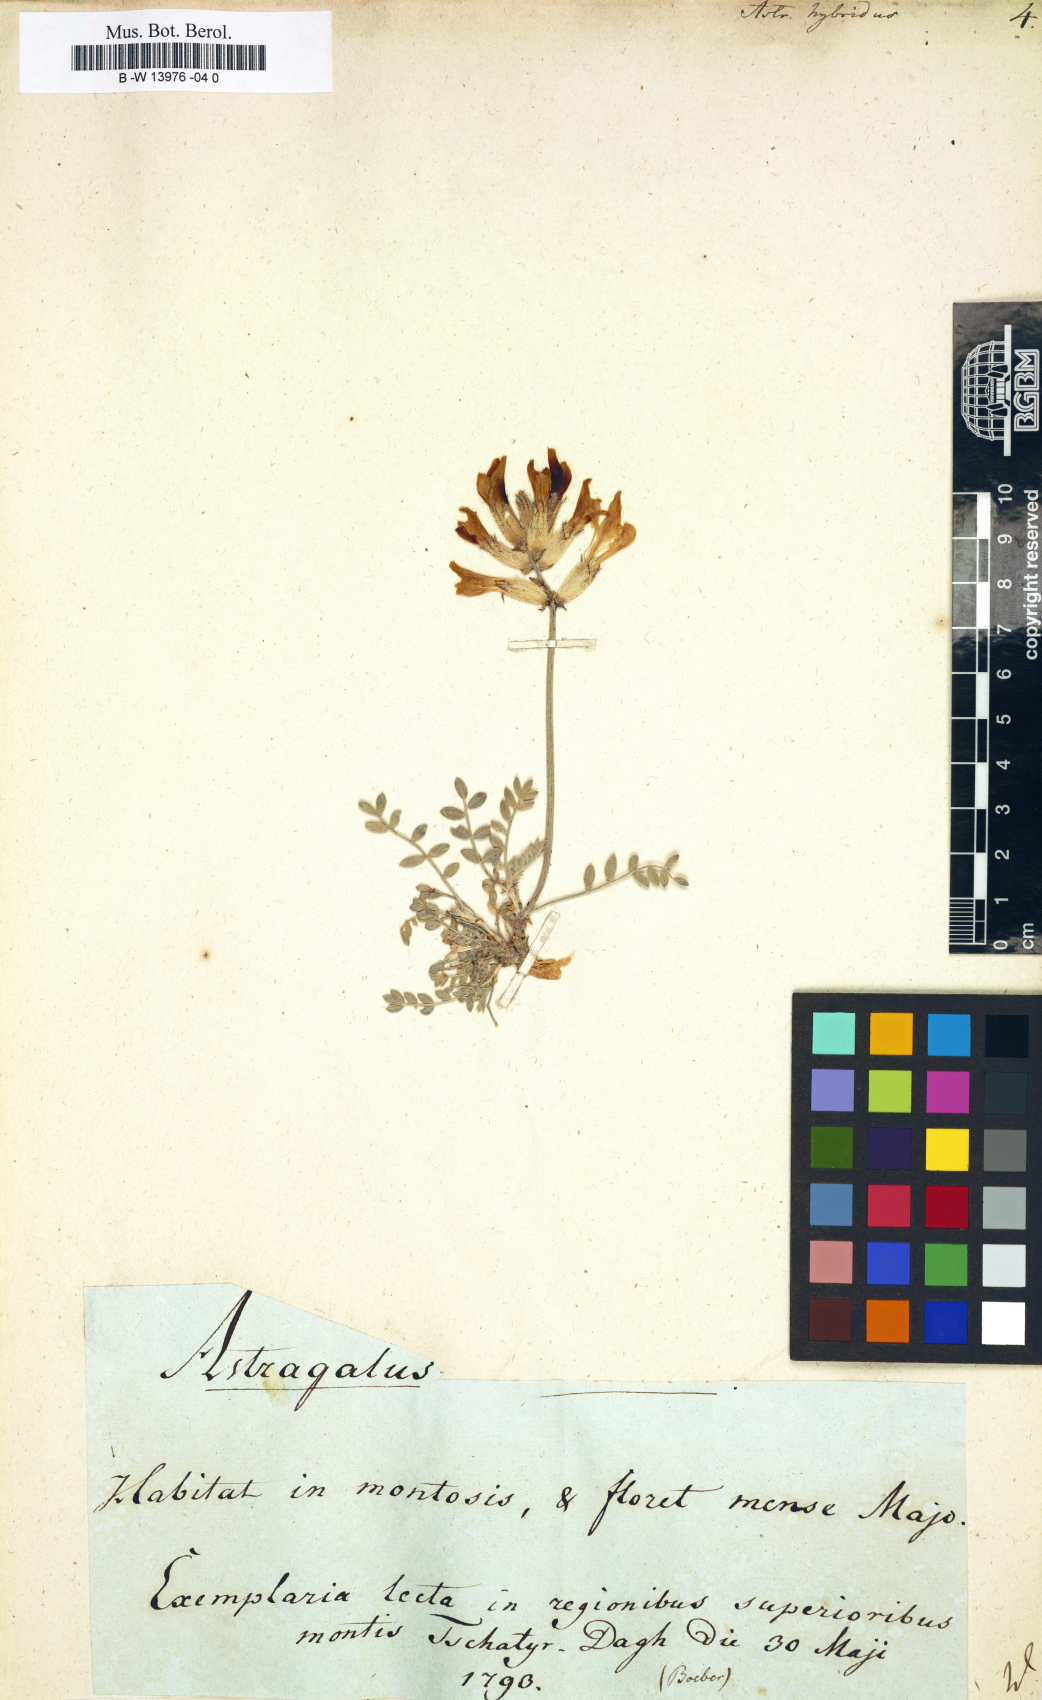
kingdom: Plantae
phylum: Tracheophyta
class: Magnoliopsida
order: Fabales
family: Fabaceae
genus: Astragalus
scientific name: Astragalus hybridus
